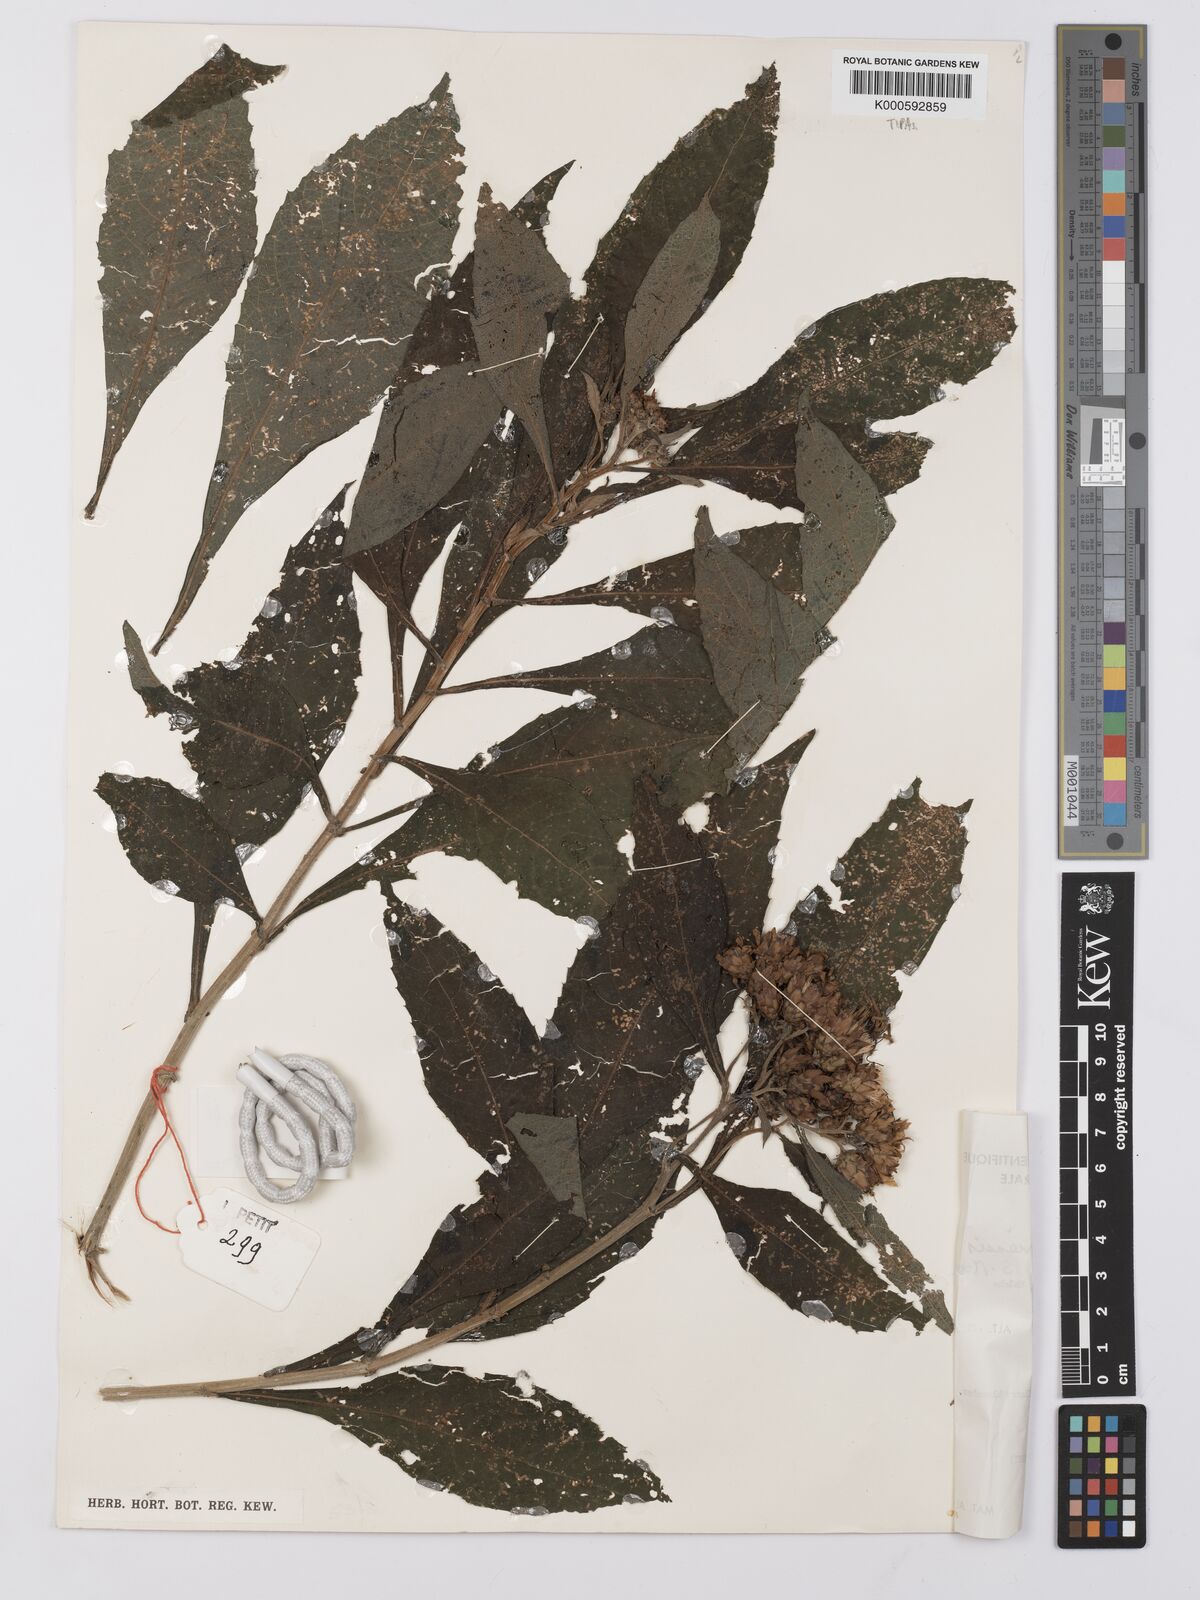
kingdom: Plantae
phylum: Tracheophyta
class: Magnoliopsida
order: Asterales
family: Asteraceae
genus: Baccharoides
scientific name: Baccharoides kirungae
